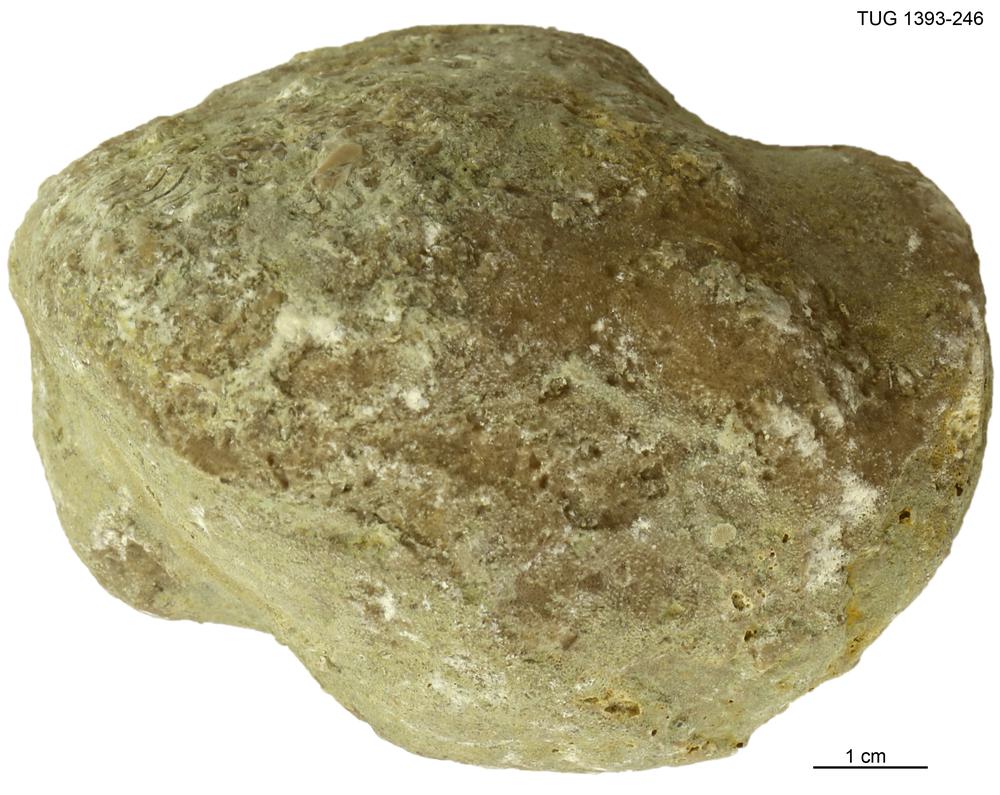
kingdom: Animalia
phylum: Bryozoa
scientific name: Bryozoa
